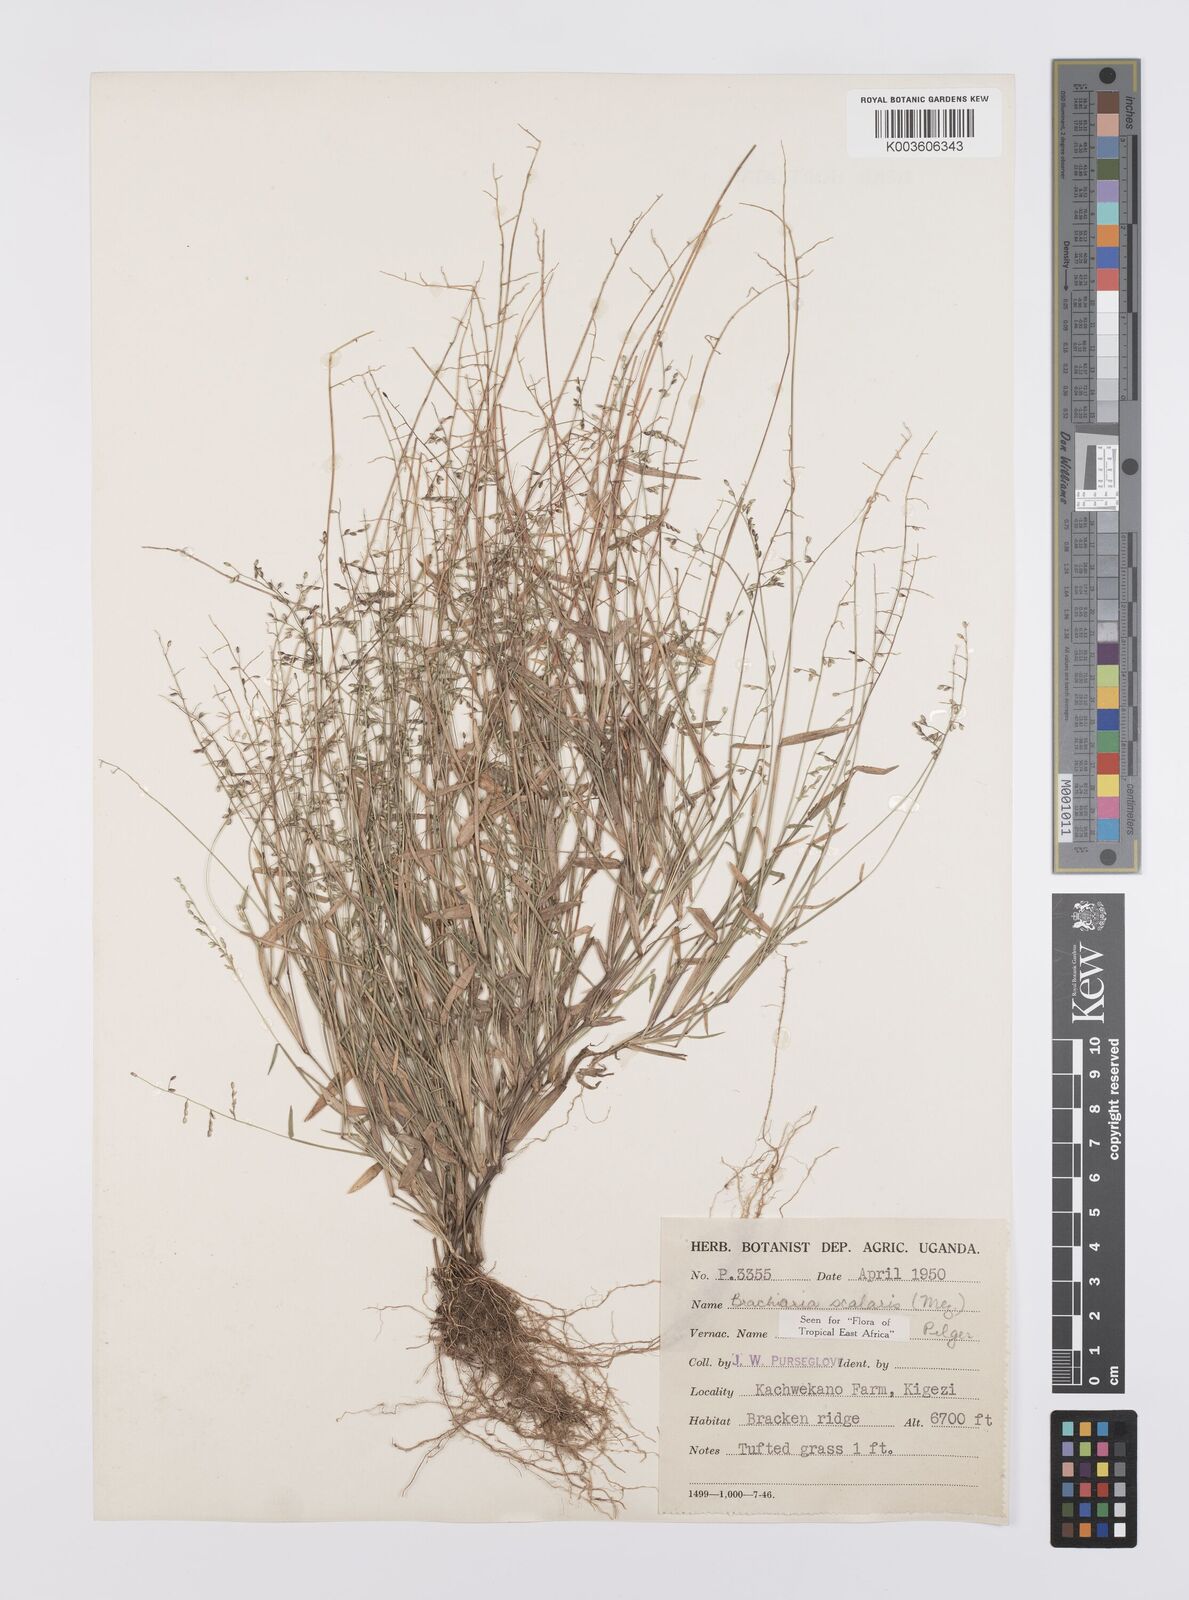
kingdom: Plantae
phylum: Tracheophyta
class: Liliopsida
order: Poales
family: Poaceae
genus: Urochloa
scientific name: Urochloa comata
